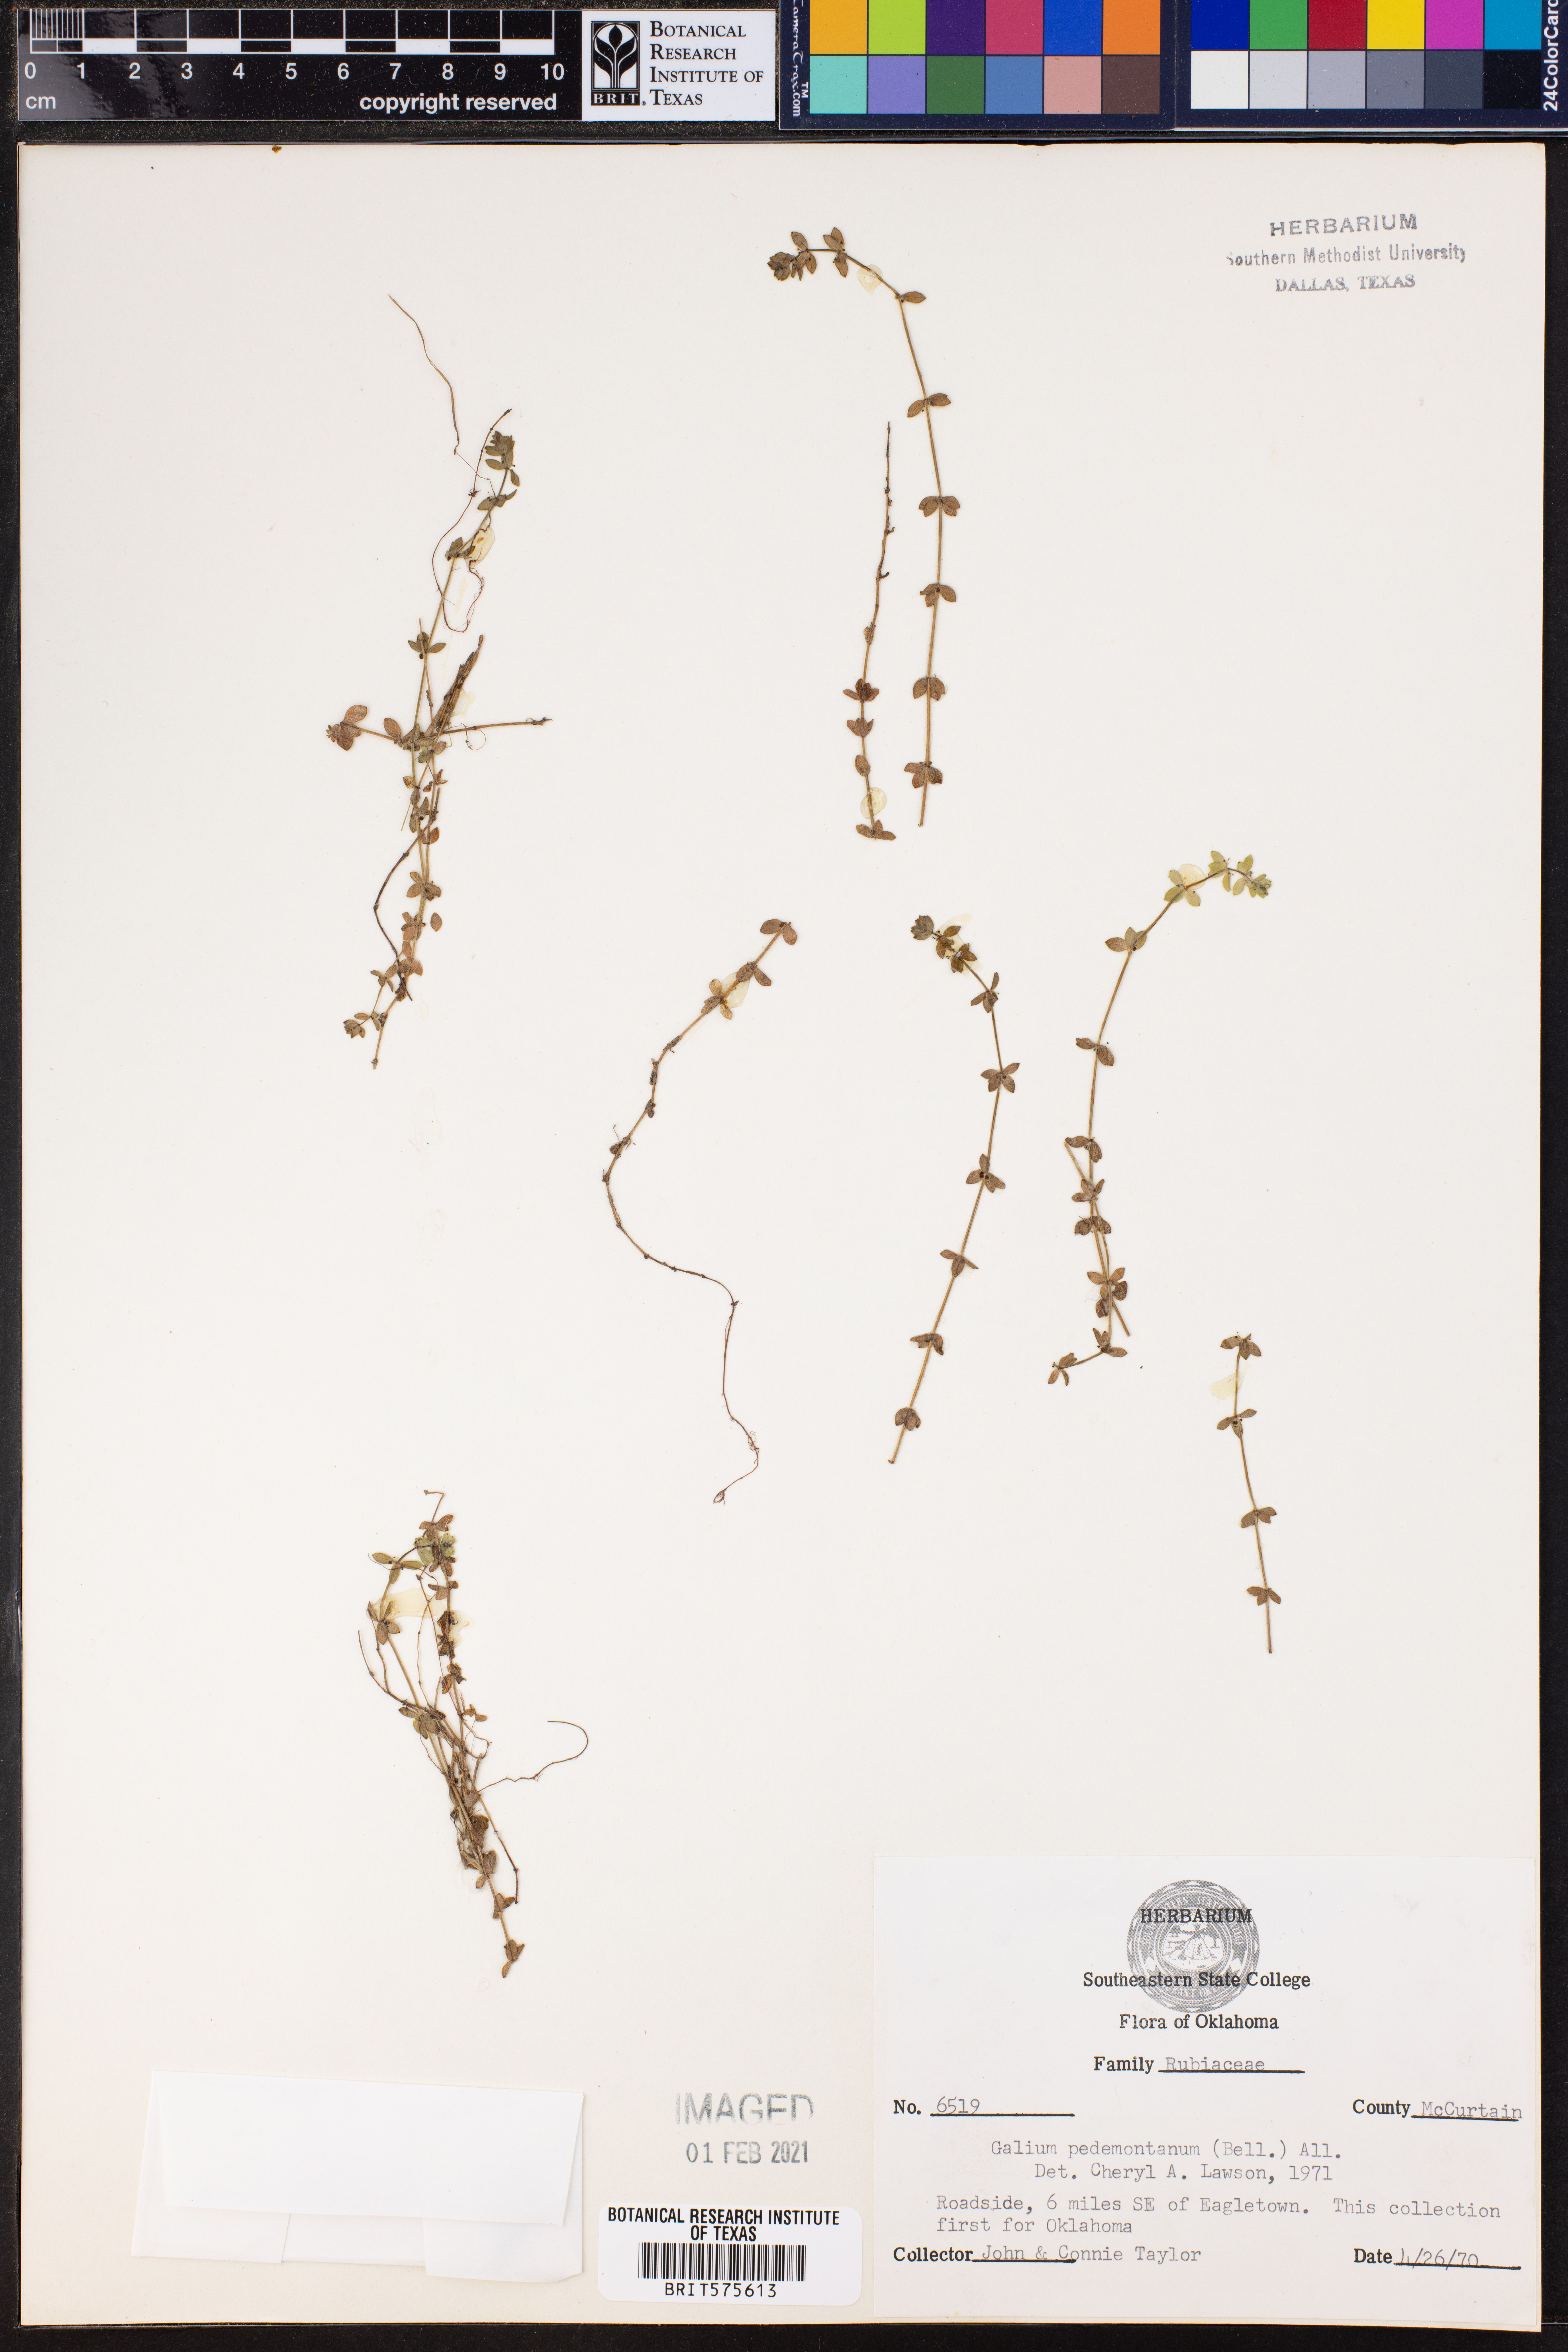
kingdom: Plantae
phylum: Tracheophyta
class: Magnoliopsida
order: Gentianales
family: Rubiaceae
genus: Cruciata
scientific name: Cruciata pedemontana
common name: Piedmont bedstraw
